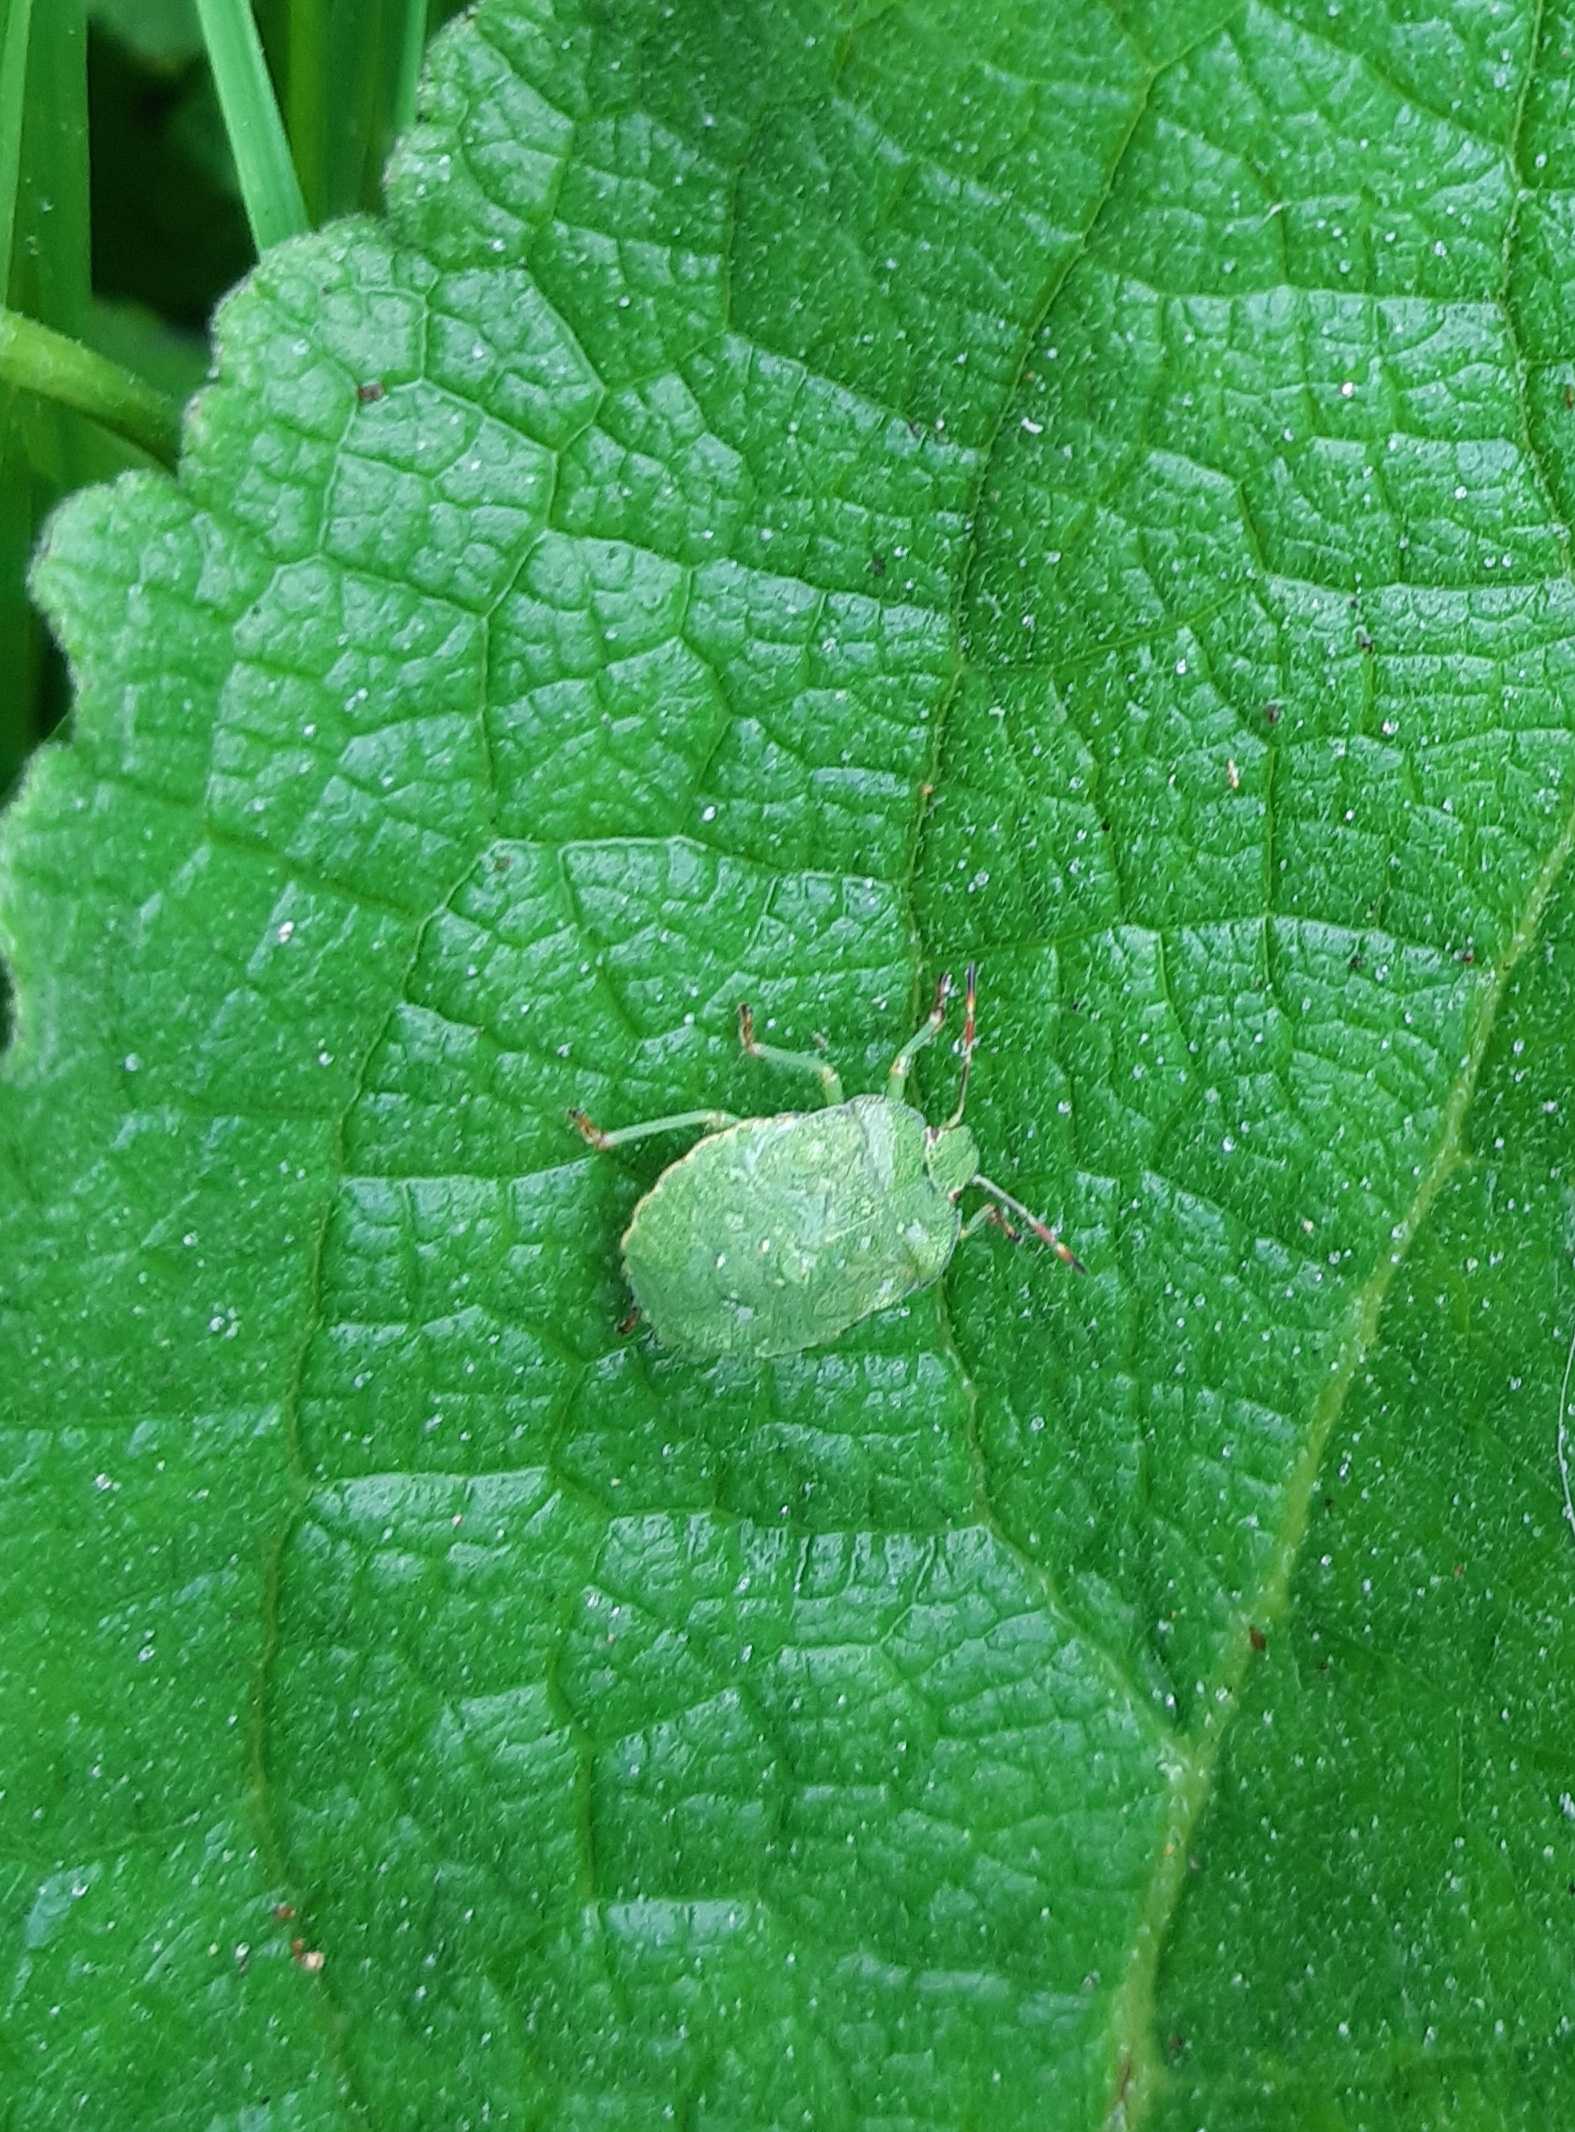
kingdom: Animalia
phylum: Arthropoda
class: Insecta
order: Hemiptera
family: Pentatomidae
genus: Palomena
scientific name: Palomena prasina
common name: Grøn bredtæge
